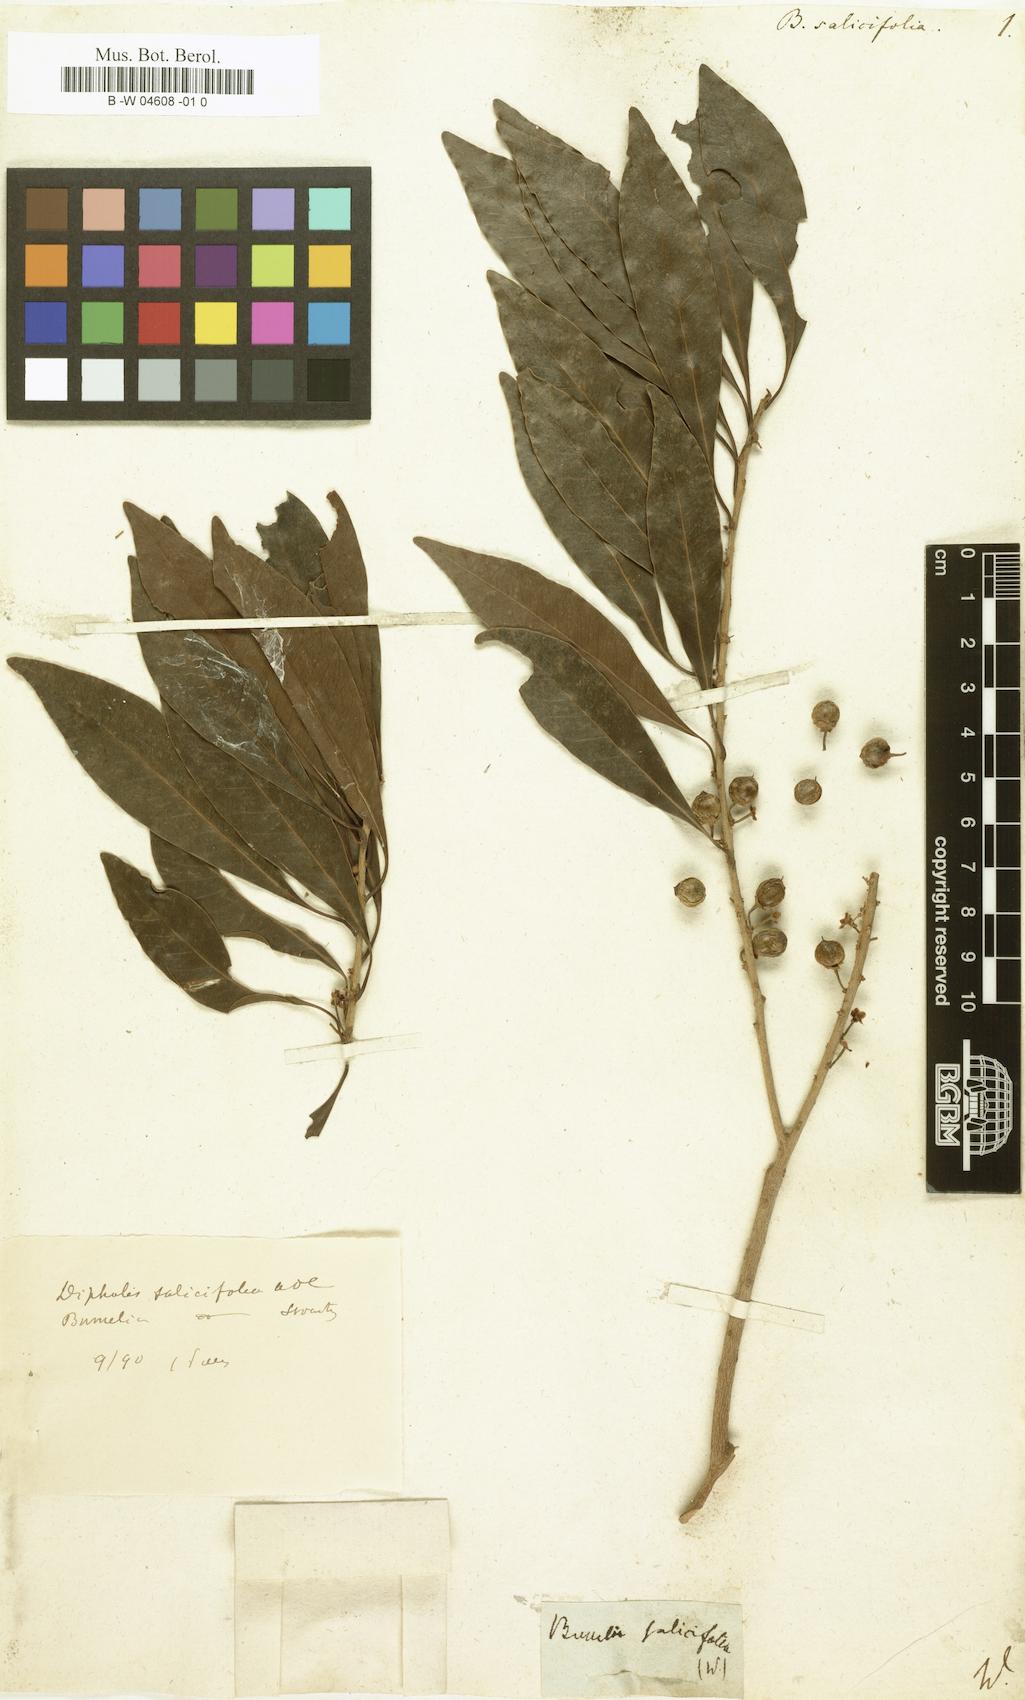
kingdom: Plantae
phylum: Tracheophyta
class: Magnoliopsida
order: Ericales
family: Sapotaceae
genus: Sideroxylon
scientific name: Sideroxylon salicifolium
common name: White bully
